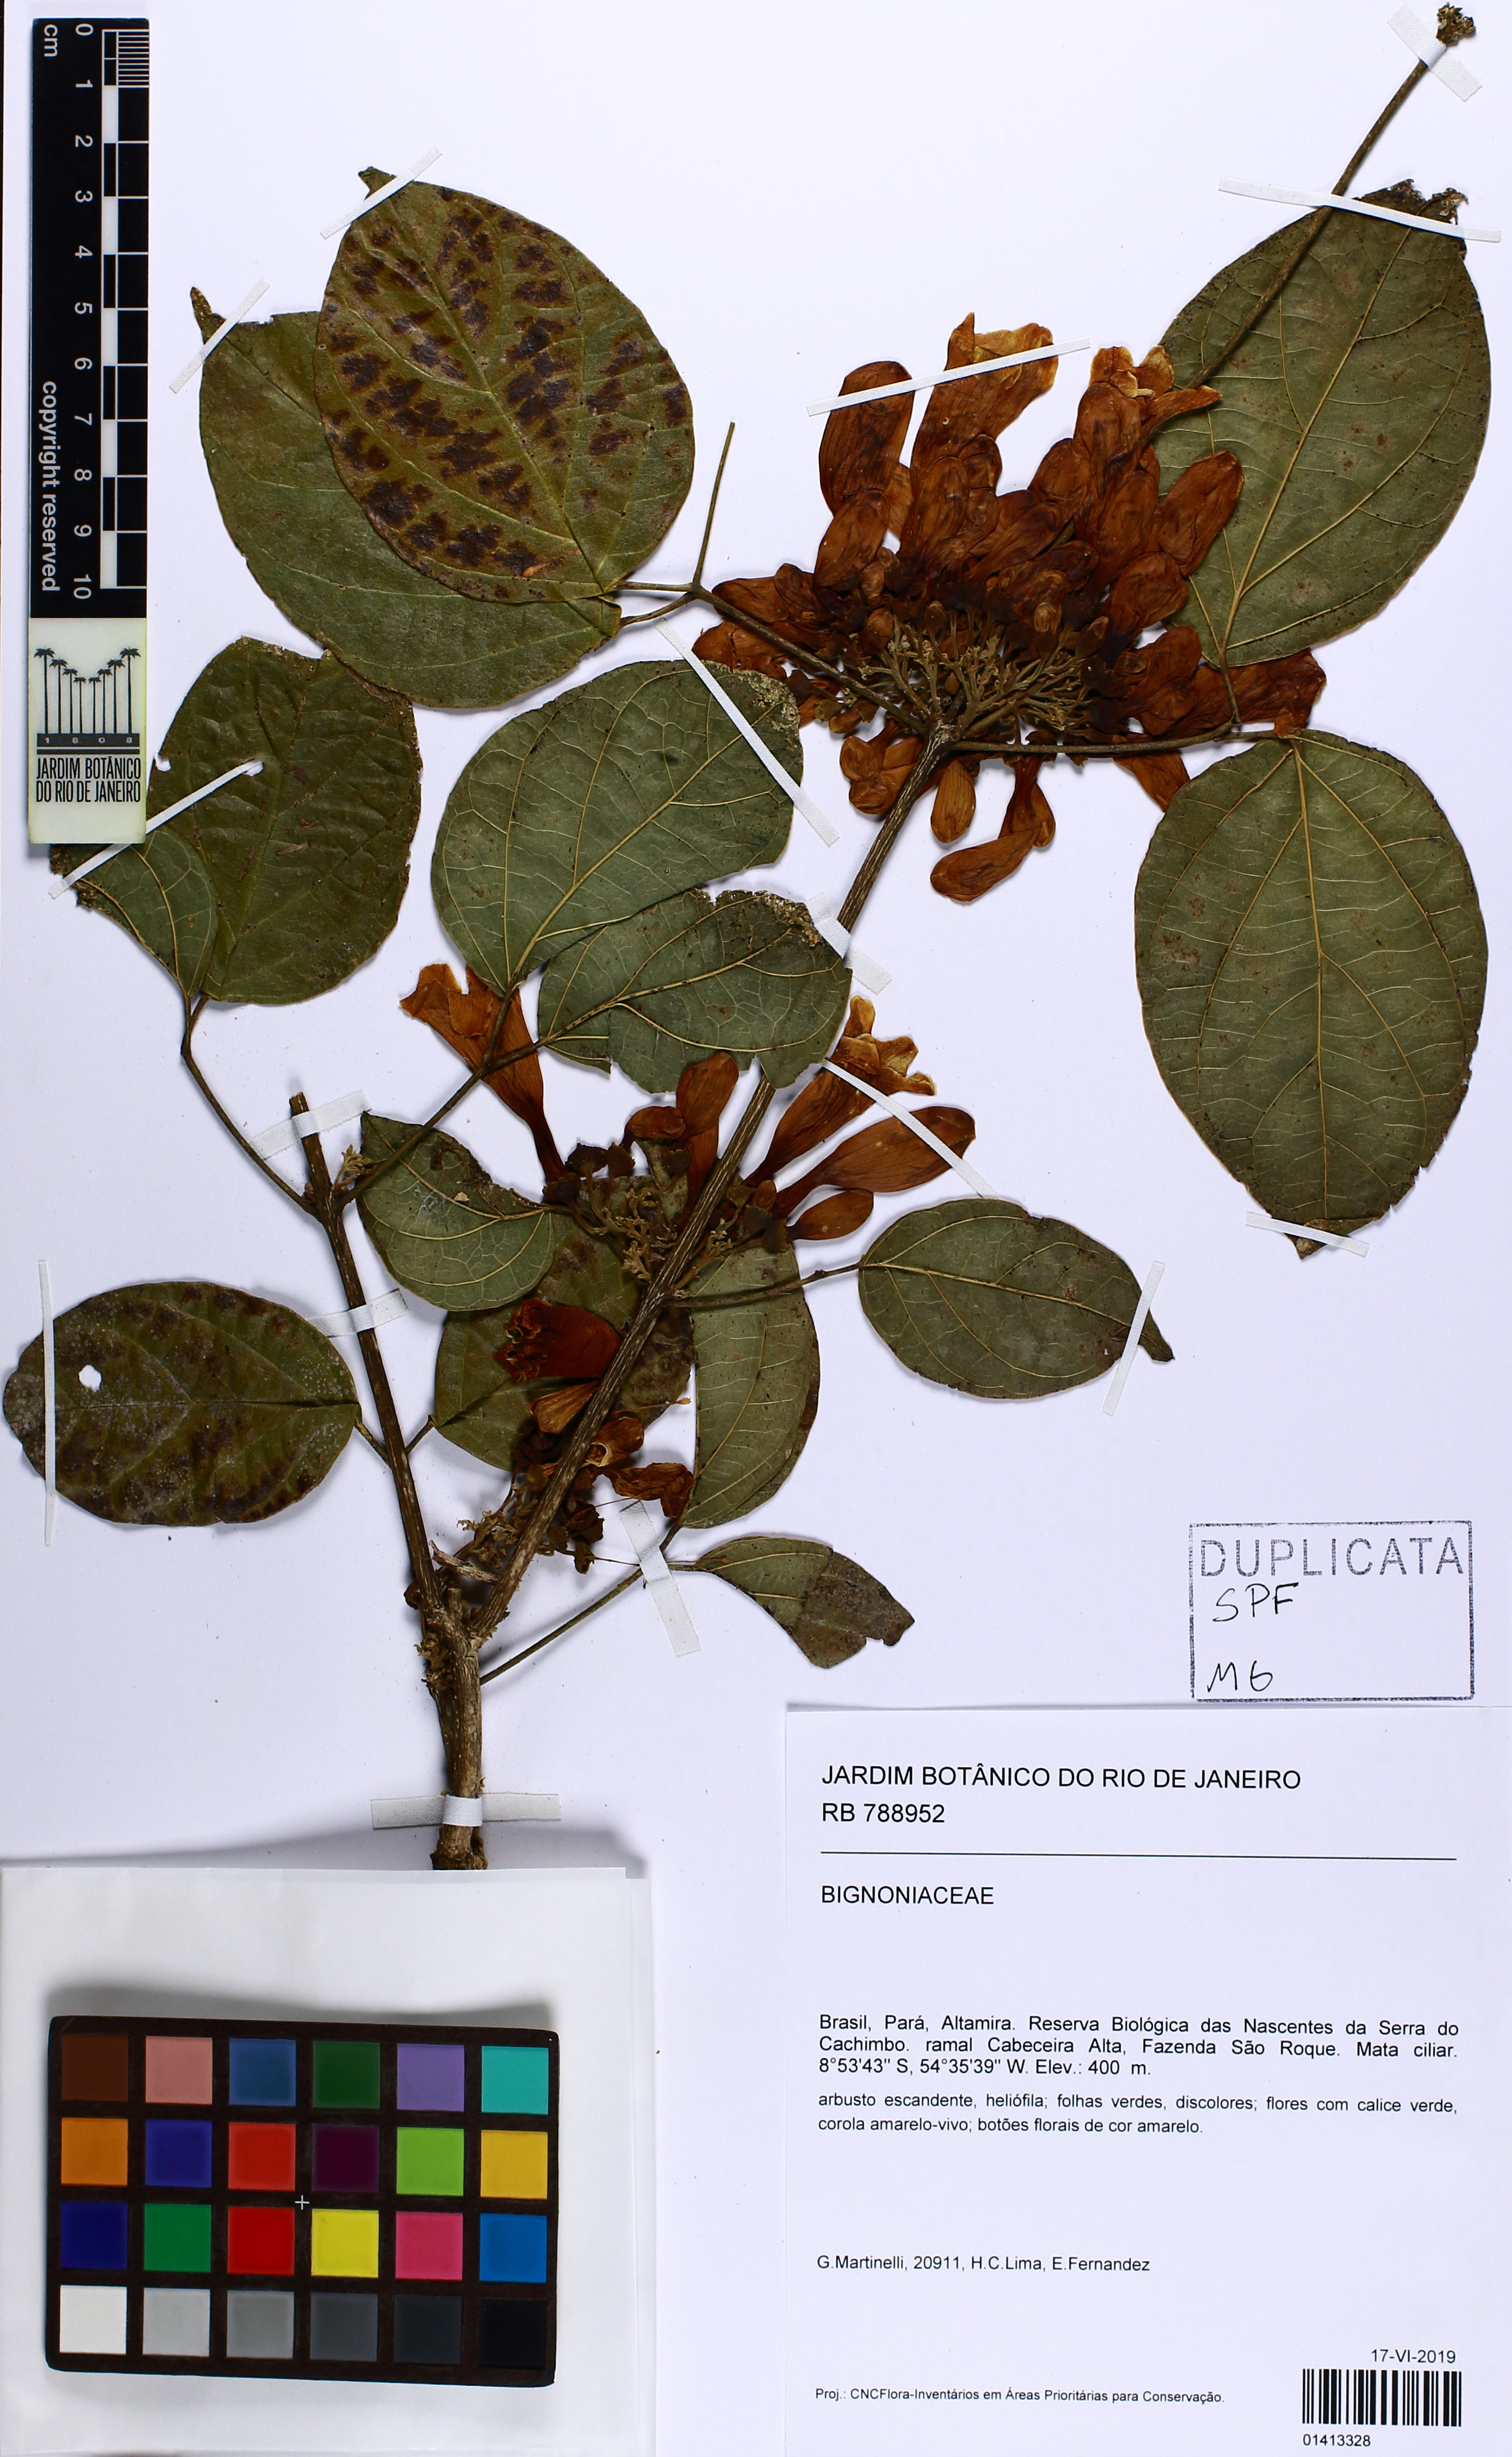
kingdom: Plantae
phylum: Tracheophyta
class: Magnoliopsida
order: Lamiales
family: Bignoniaceae
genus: Adenocalymma
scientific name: Adenocalymma
